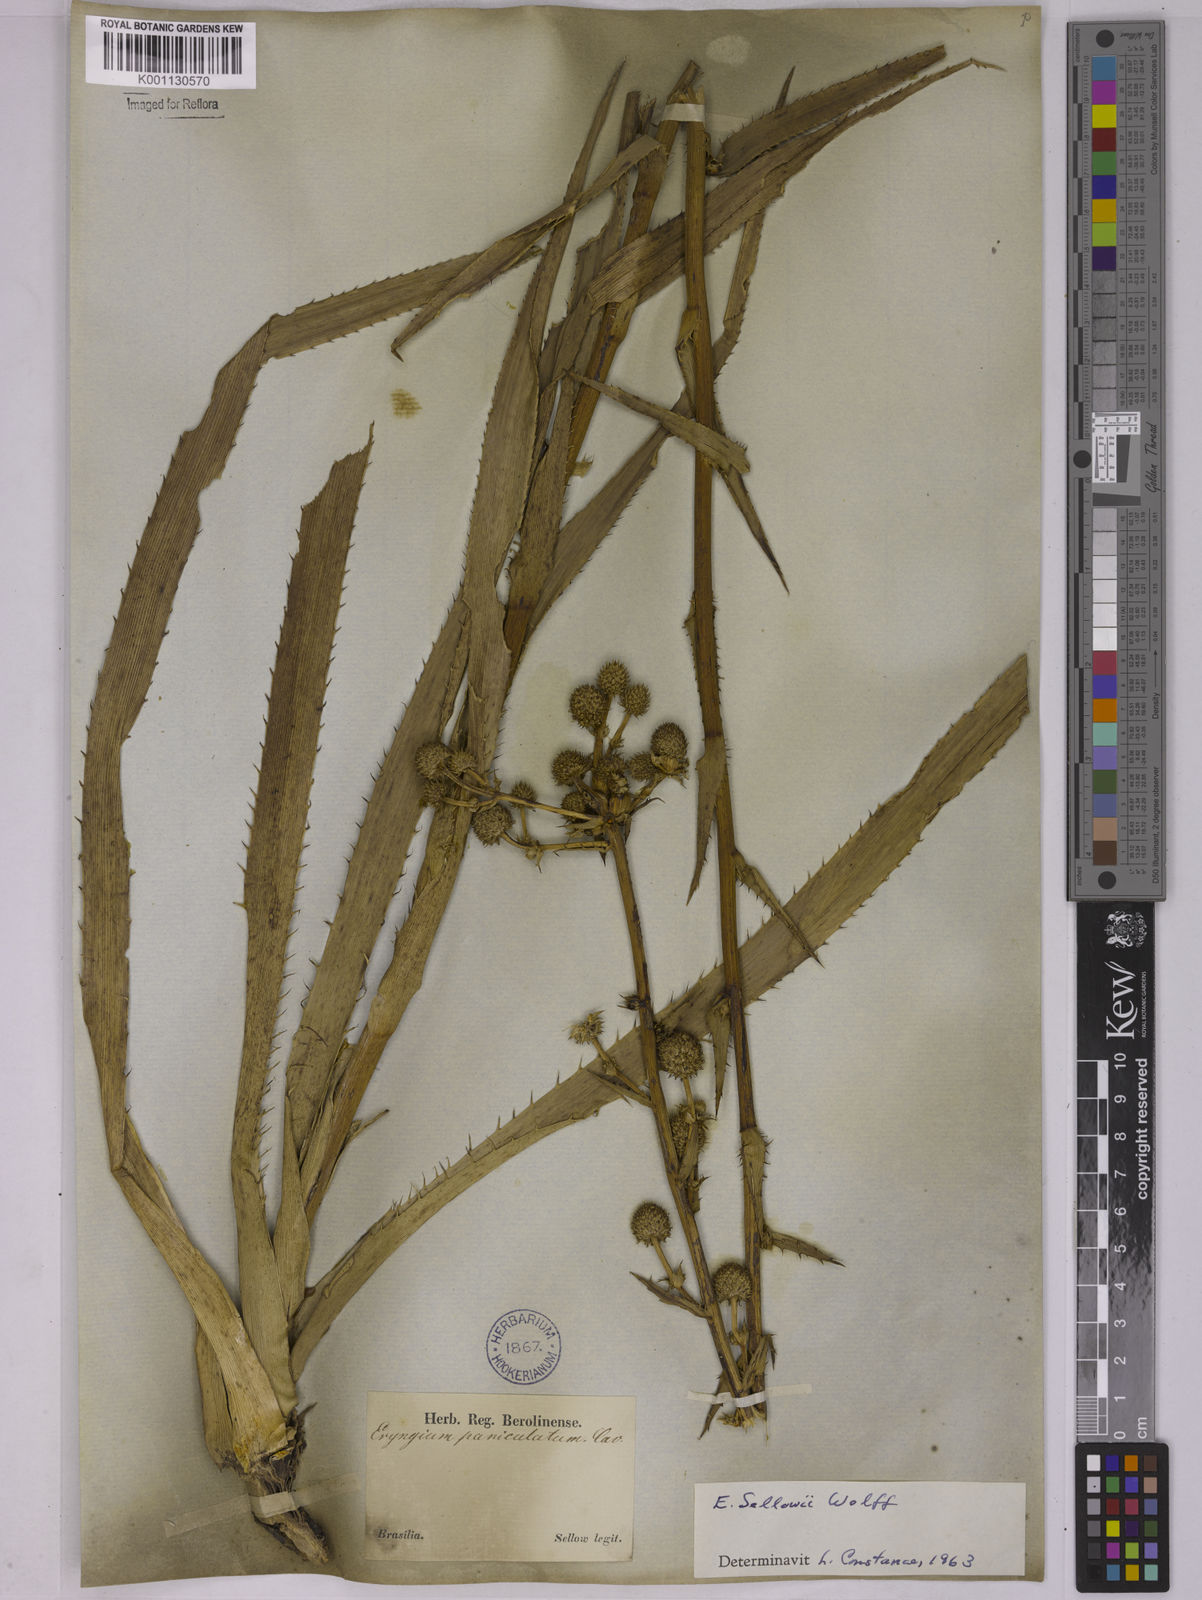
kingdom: Plantae
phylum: Tracheophyta
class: Magnoliopsida
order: Apiales
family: Apiaceae
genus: Eryngium
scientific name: Eryngium sellowii
